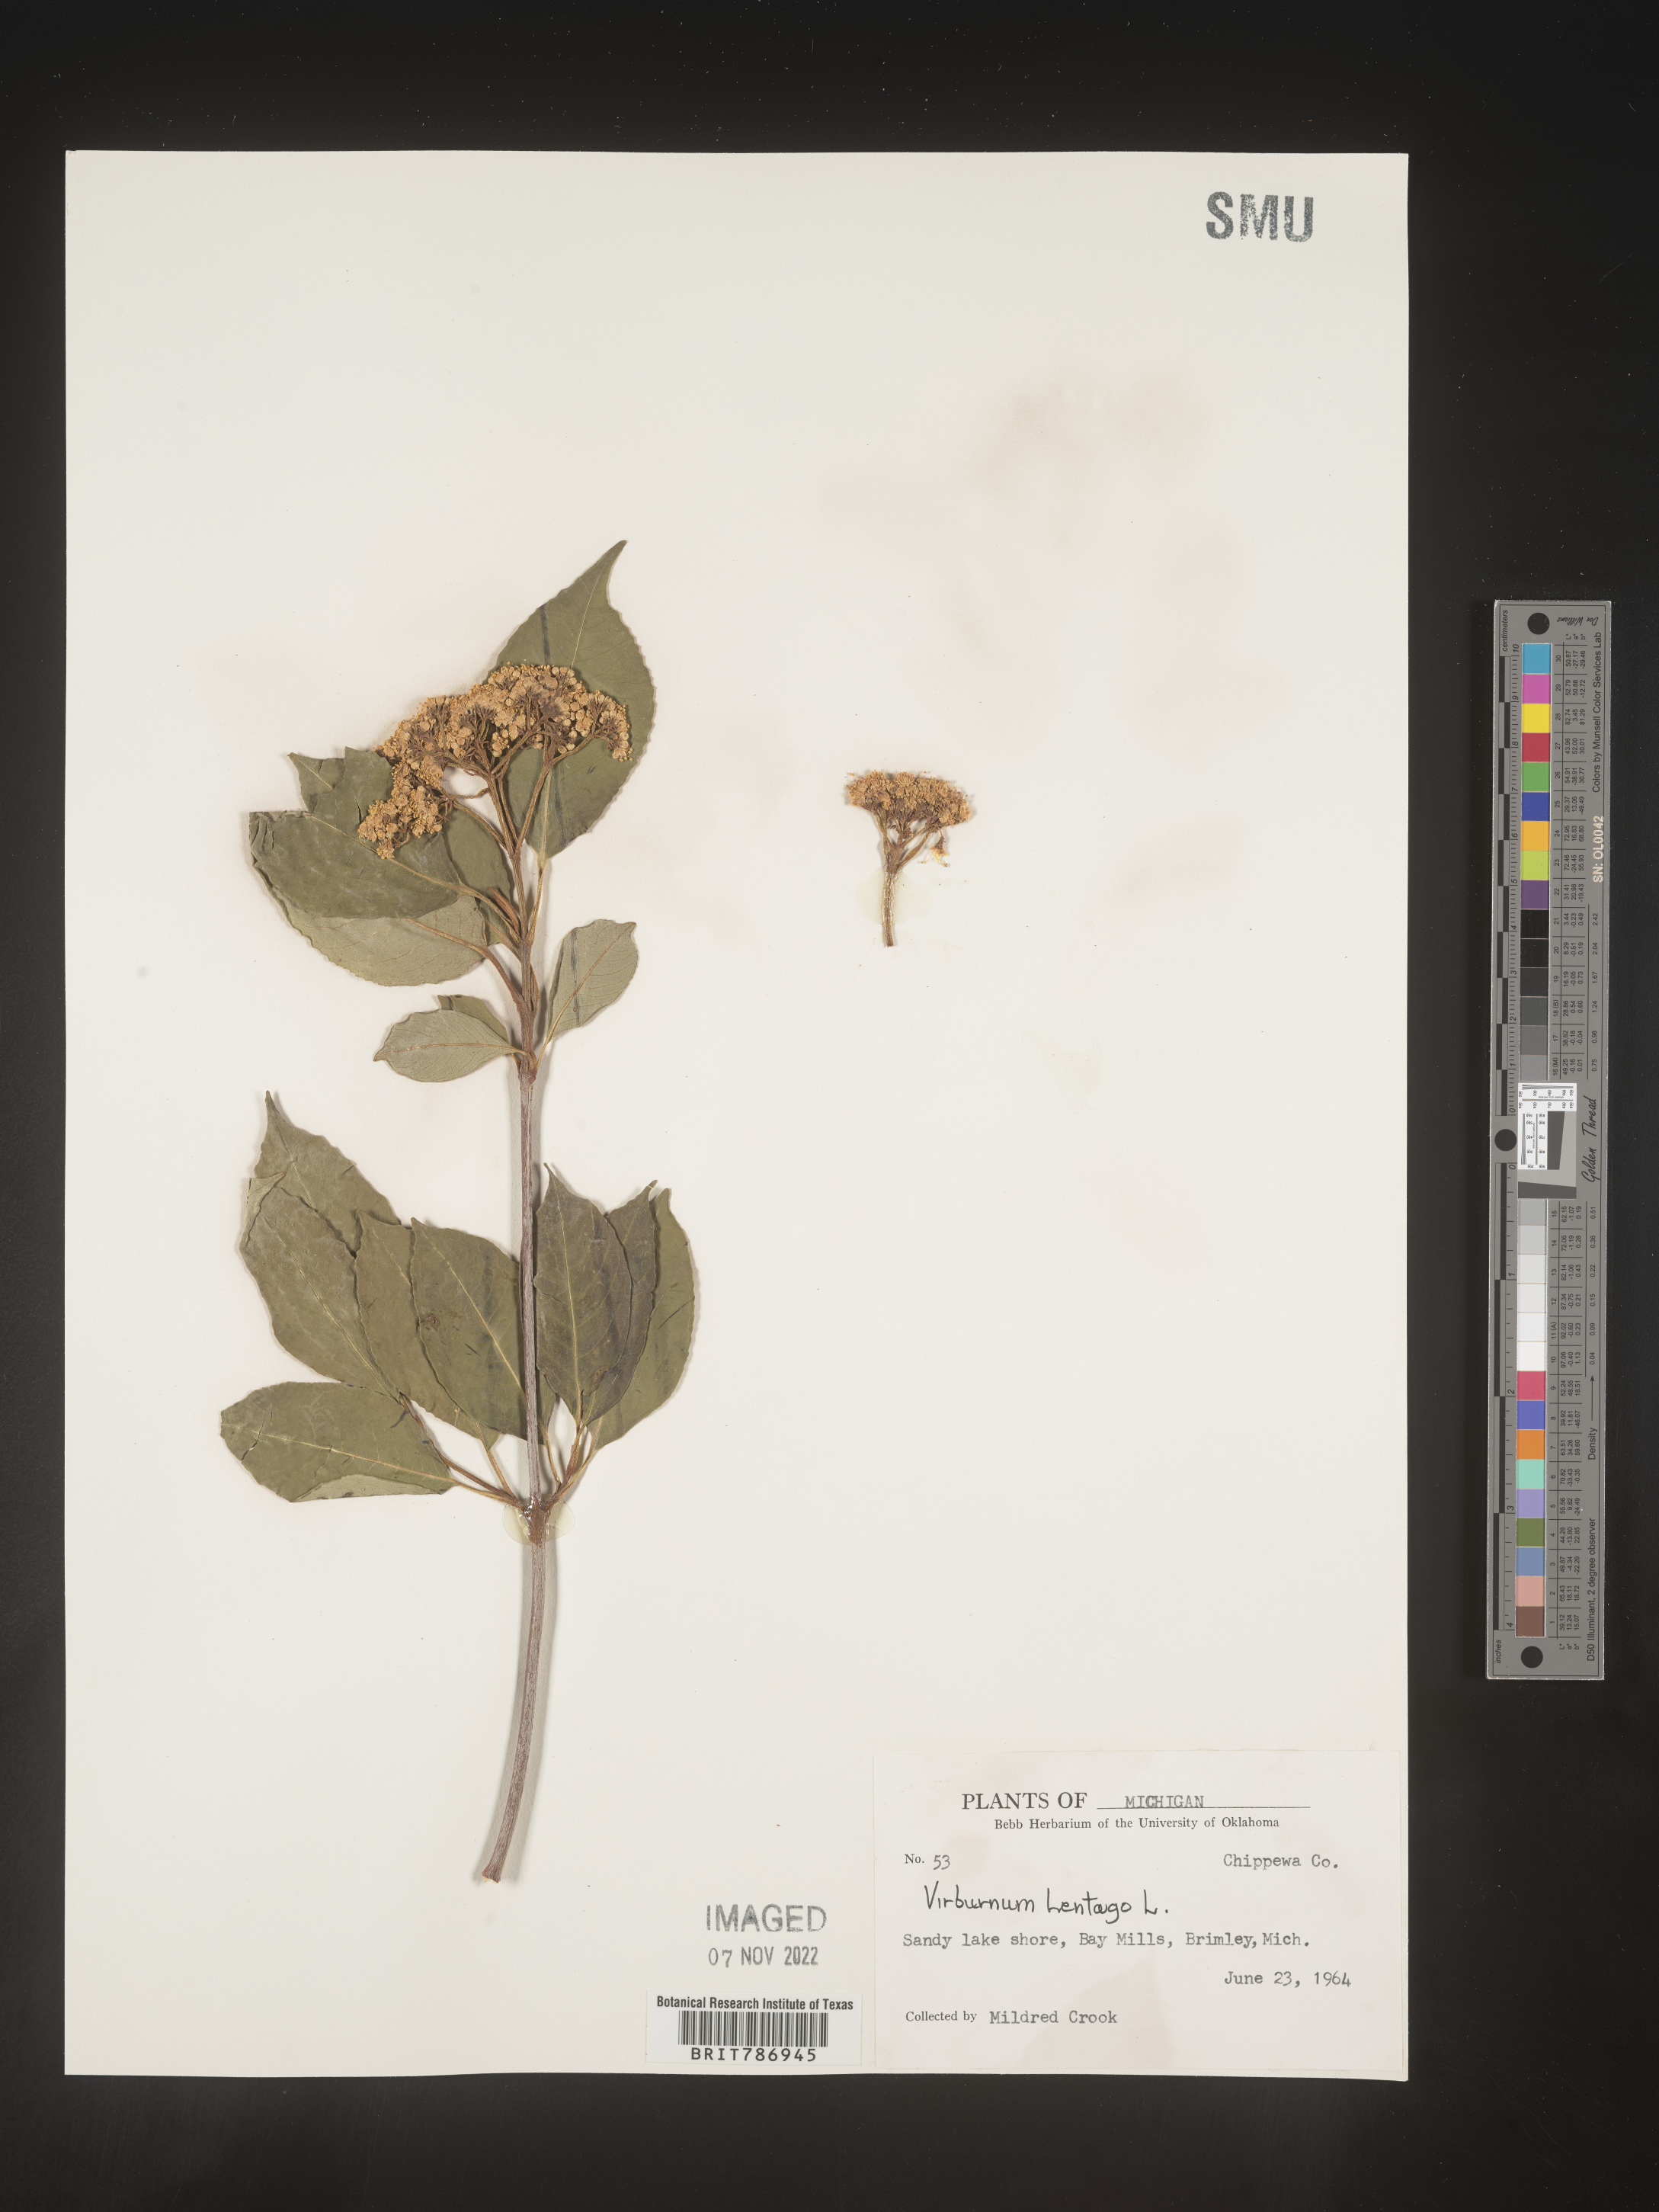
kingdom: Plantae
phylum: Tracheophyta
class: Magnoliopsida
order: Dipsacales
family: Viburnaceae
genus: Viburnum
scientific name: Viburnum lentago
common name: Black haw
